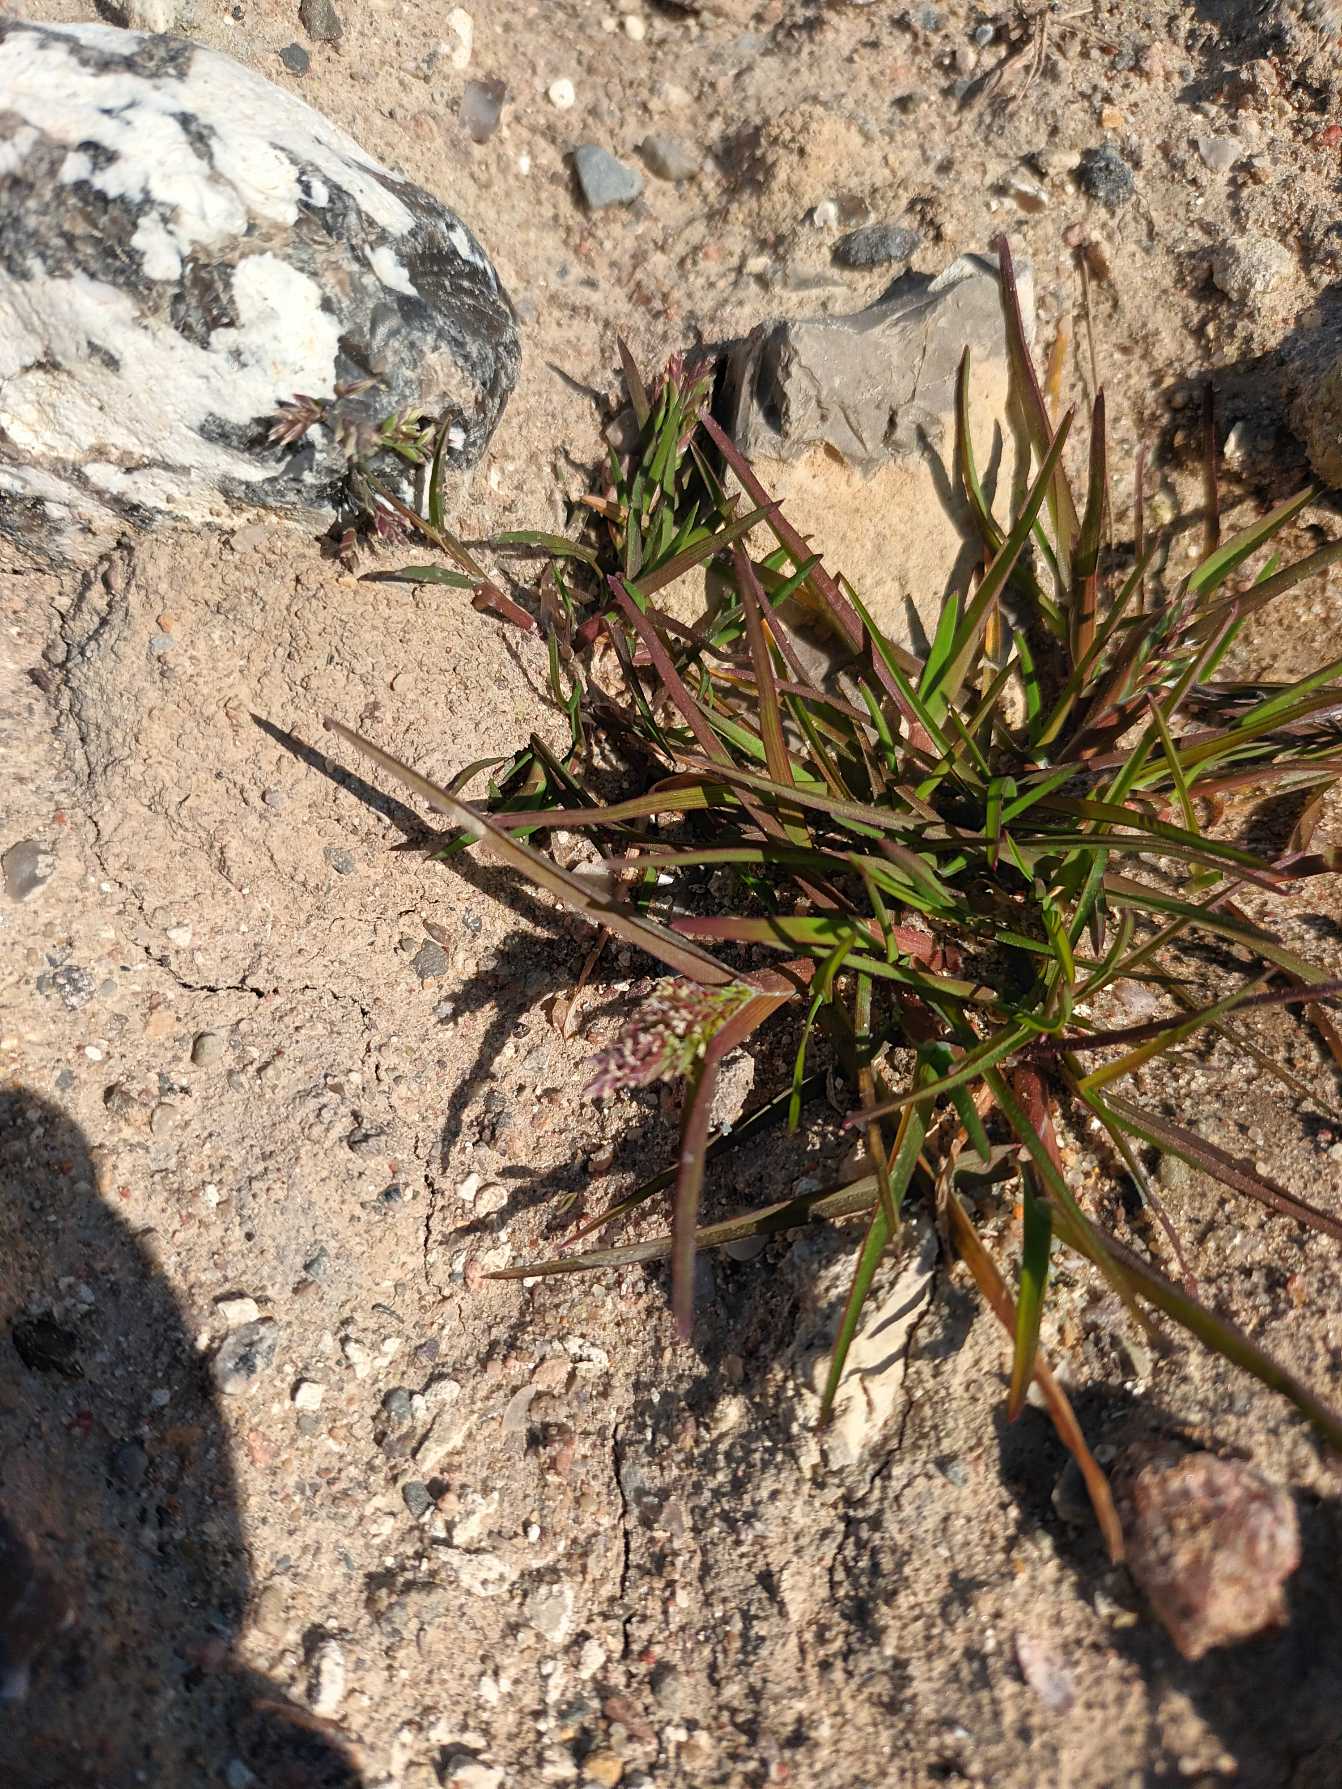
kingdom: Plantae
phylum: Tracheophyta
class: Liliopsida
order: Poales
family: Poaceae
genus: Poa
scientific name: Poa annua
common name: Enårig rapgræs
